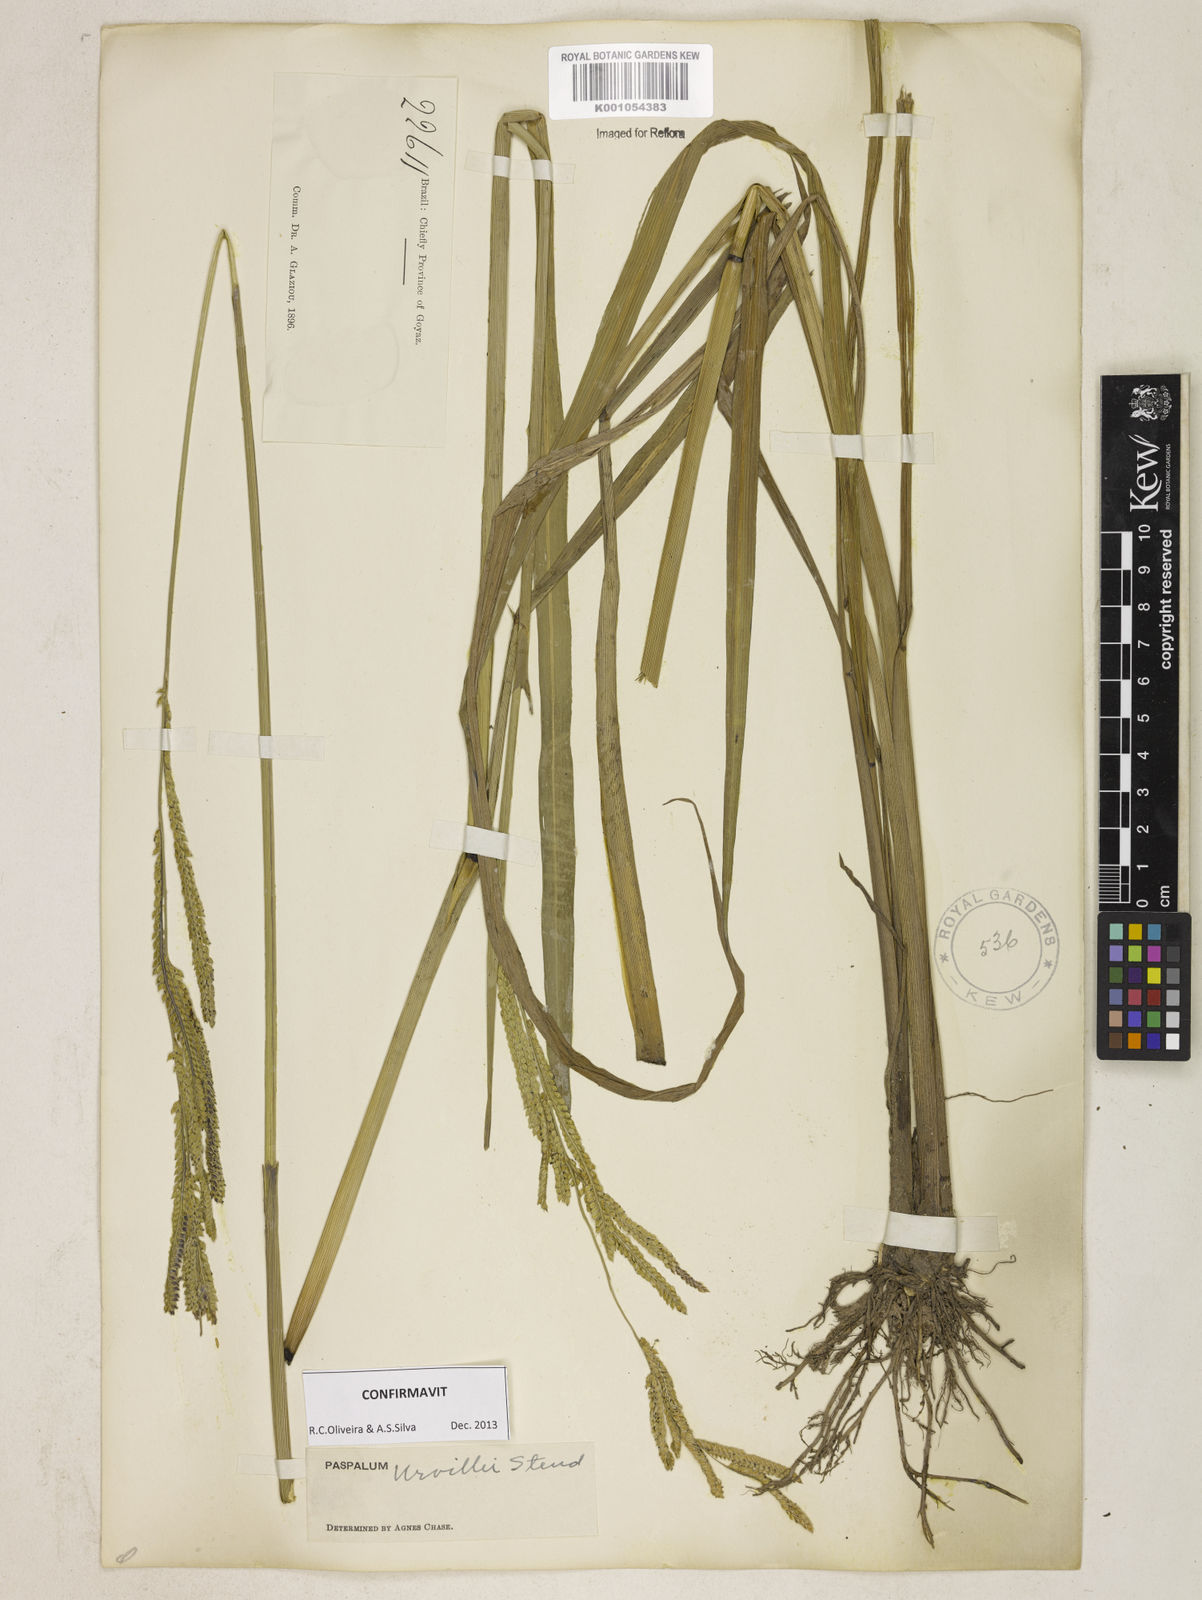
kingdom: Plantae
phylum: Tracheophyta
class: Liliopsida
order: Poales
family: Poaceae
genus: Paspalum
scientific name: Paspalum urvillei
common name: Vasey's grass
